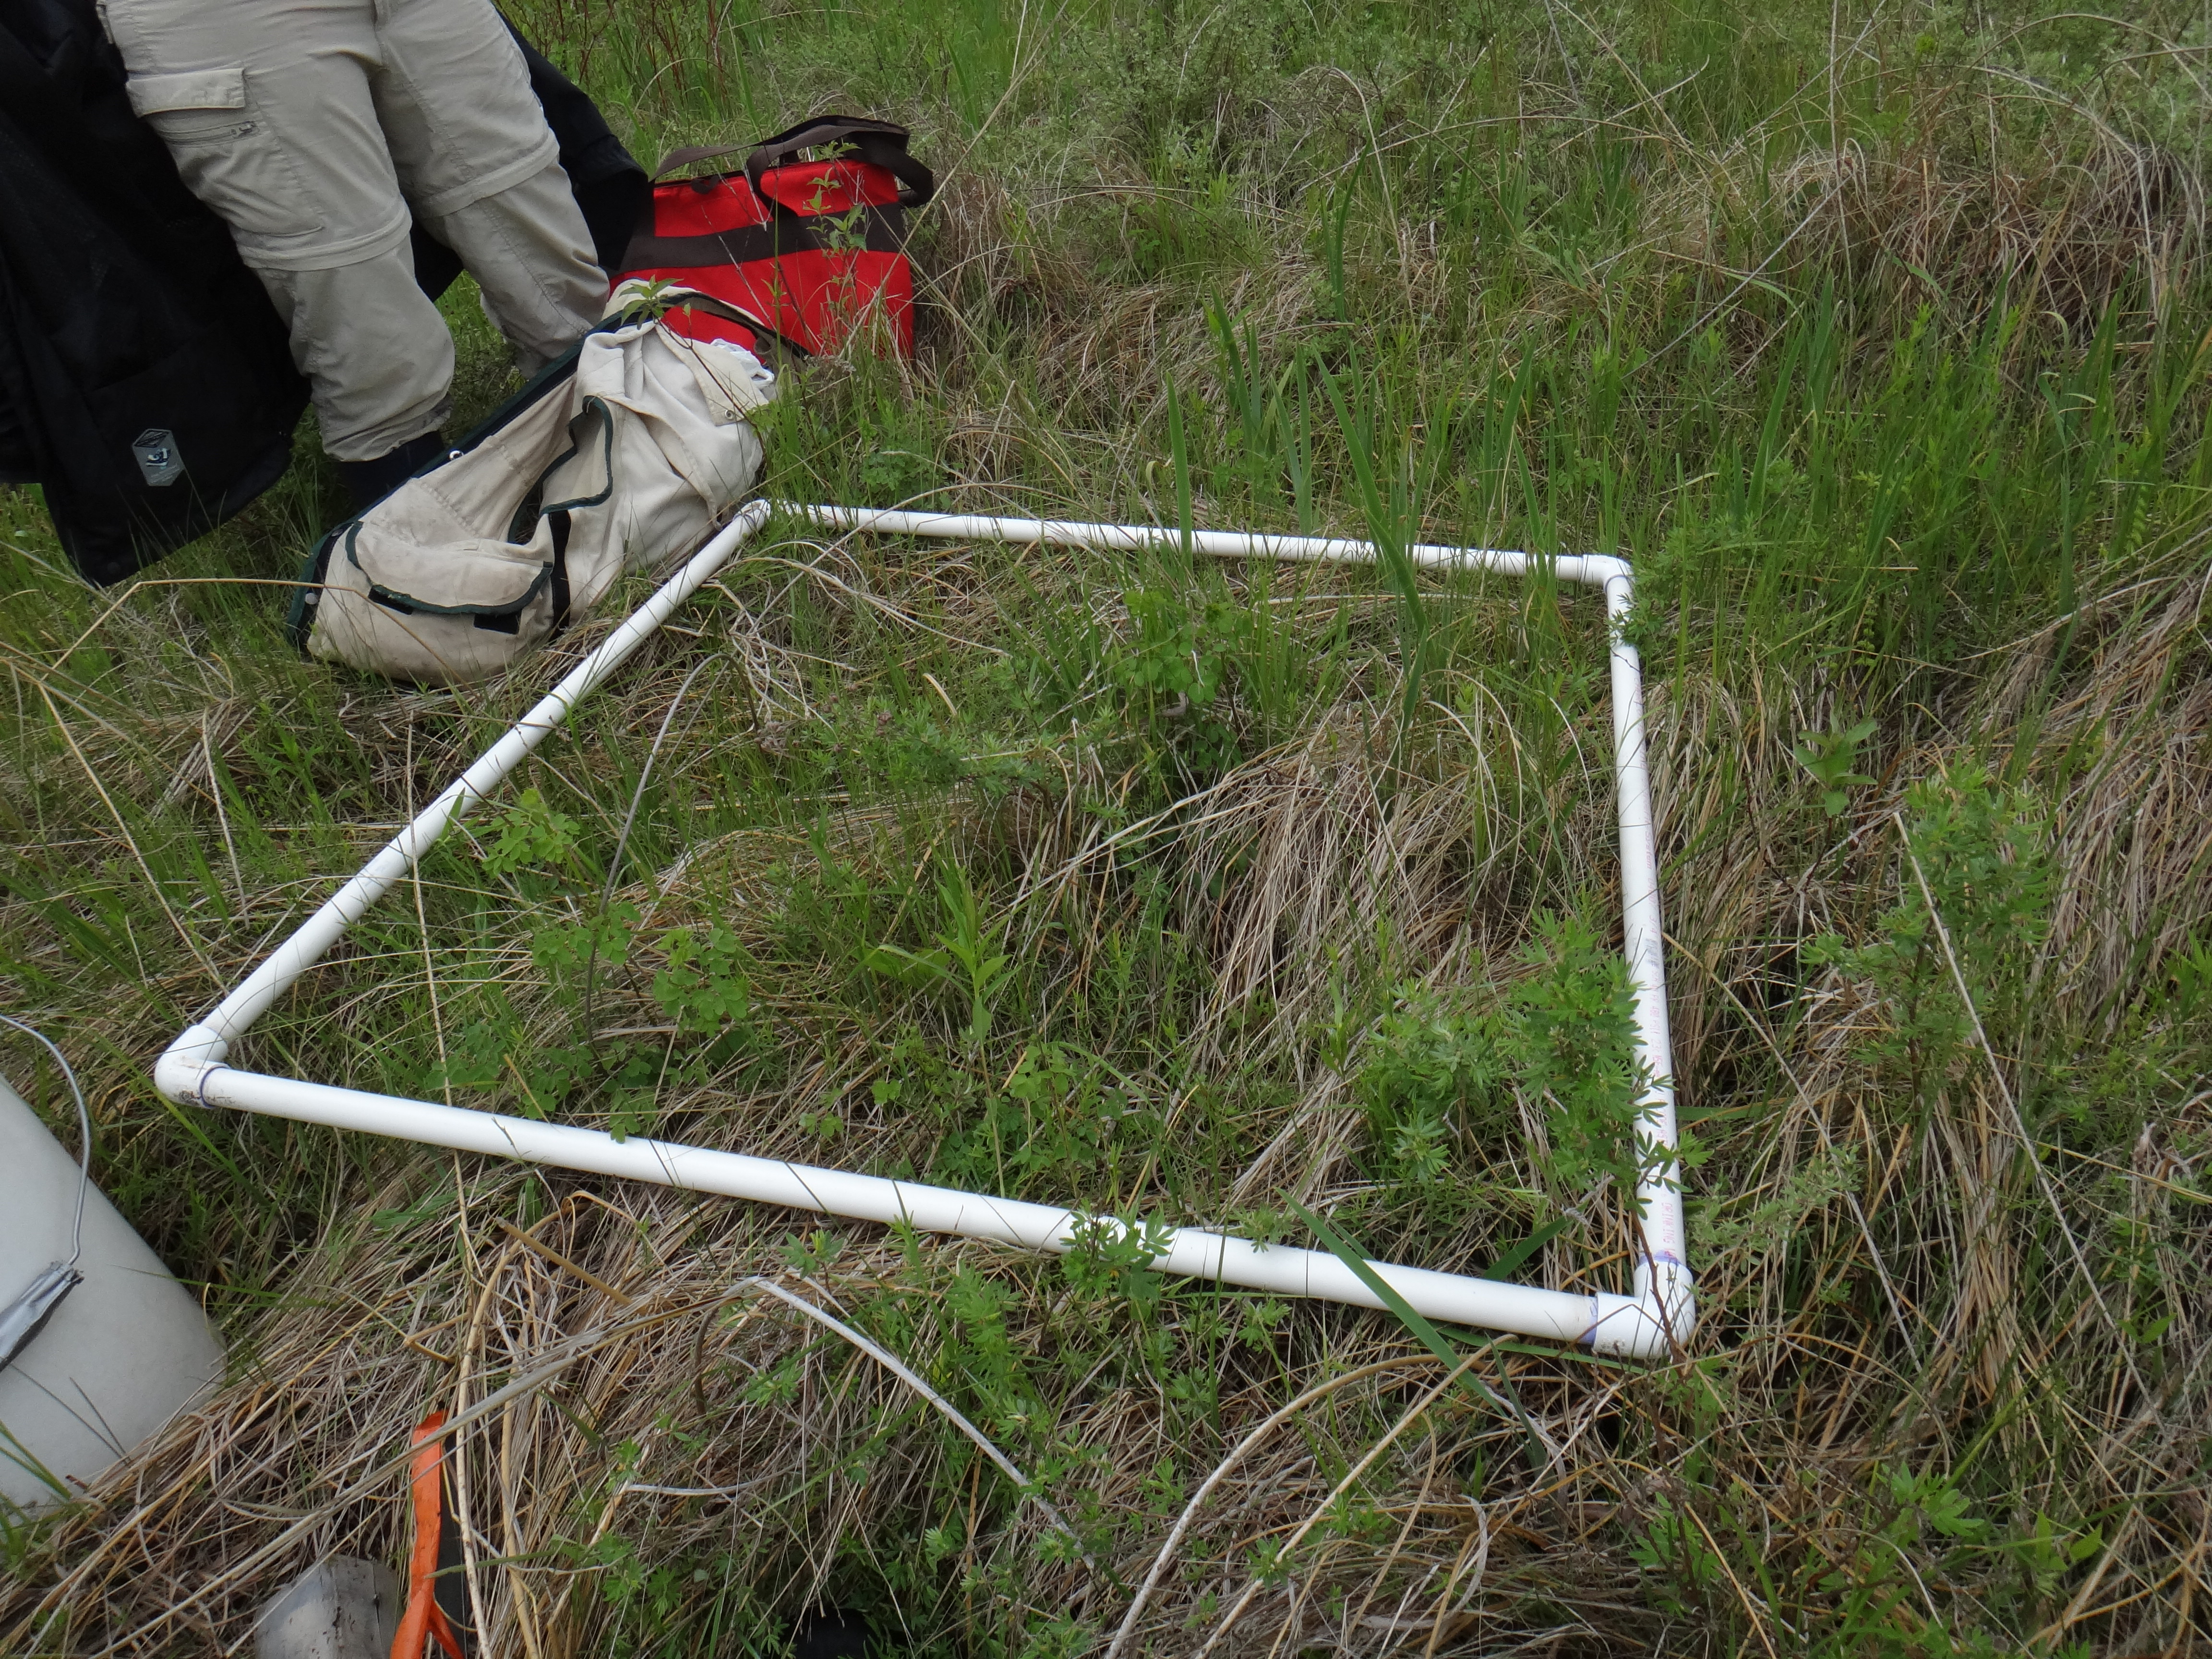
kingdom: Plantae
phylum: Tracheophyta
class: Polypodiopsida
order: Polypodiales
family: Thelypteridaceae
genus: Thelypteris
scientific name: Thelypteris palustris
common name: Marsh fern
